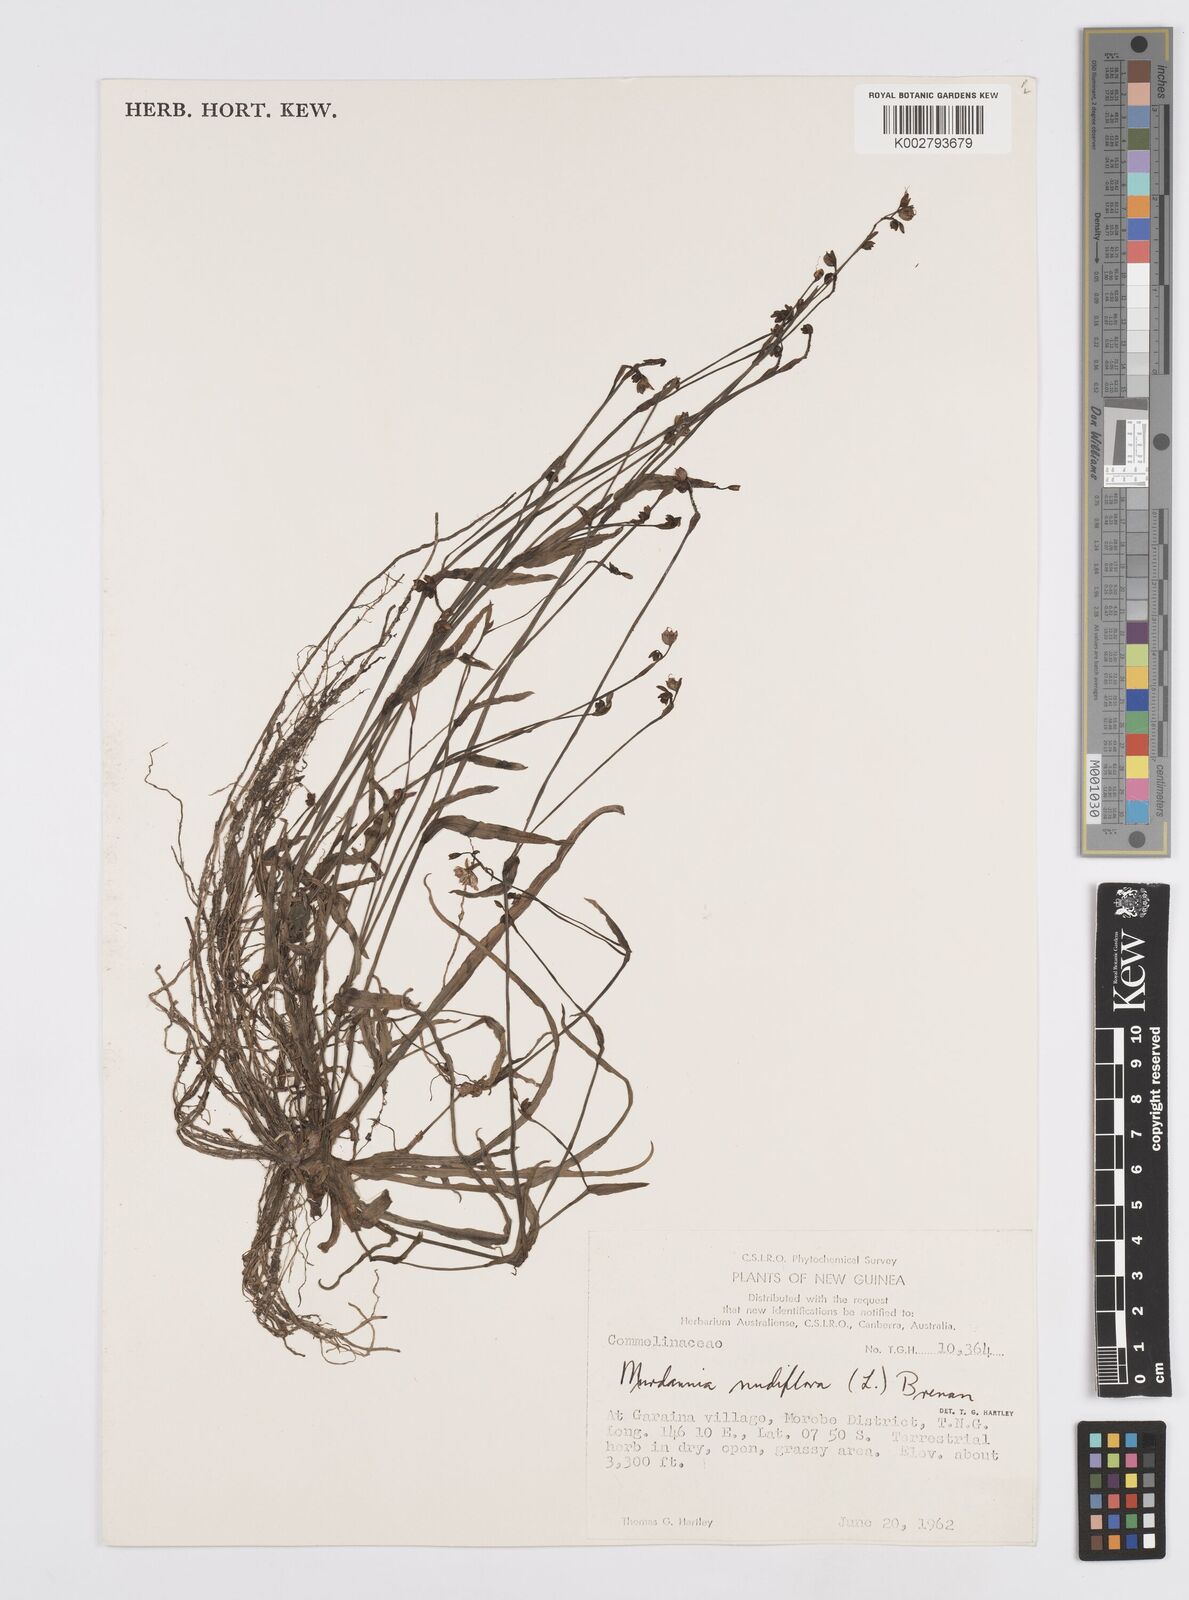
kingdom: Plantae
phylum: Tracheophyta
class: Liliopsida
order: Commelinales
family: Commelinaceae
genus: Murdannia
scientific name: Murdannia nudiflora
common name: Nakedstem dewflower
